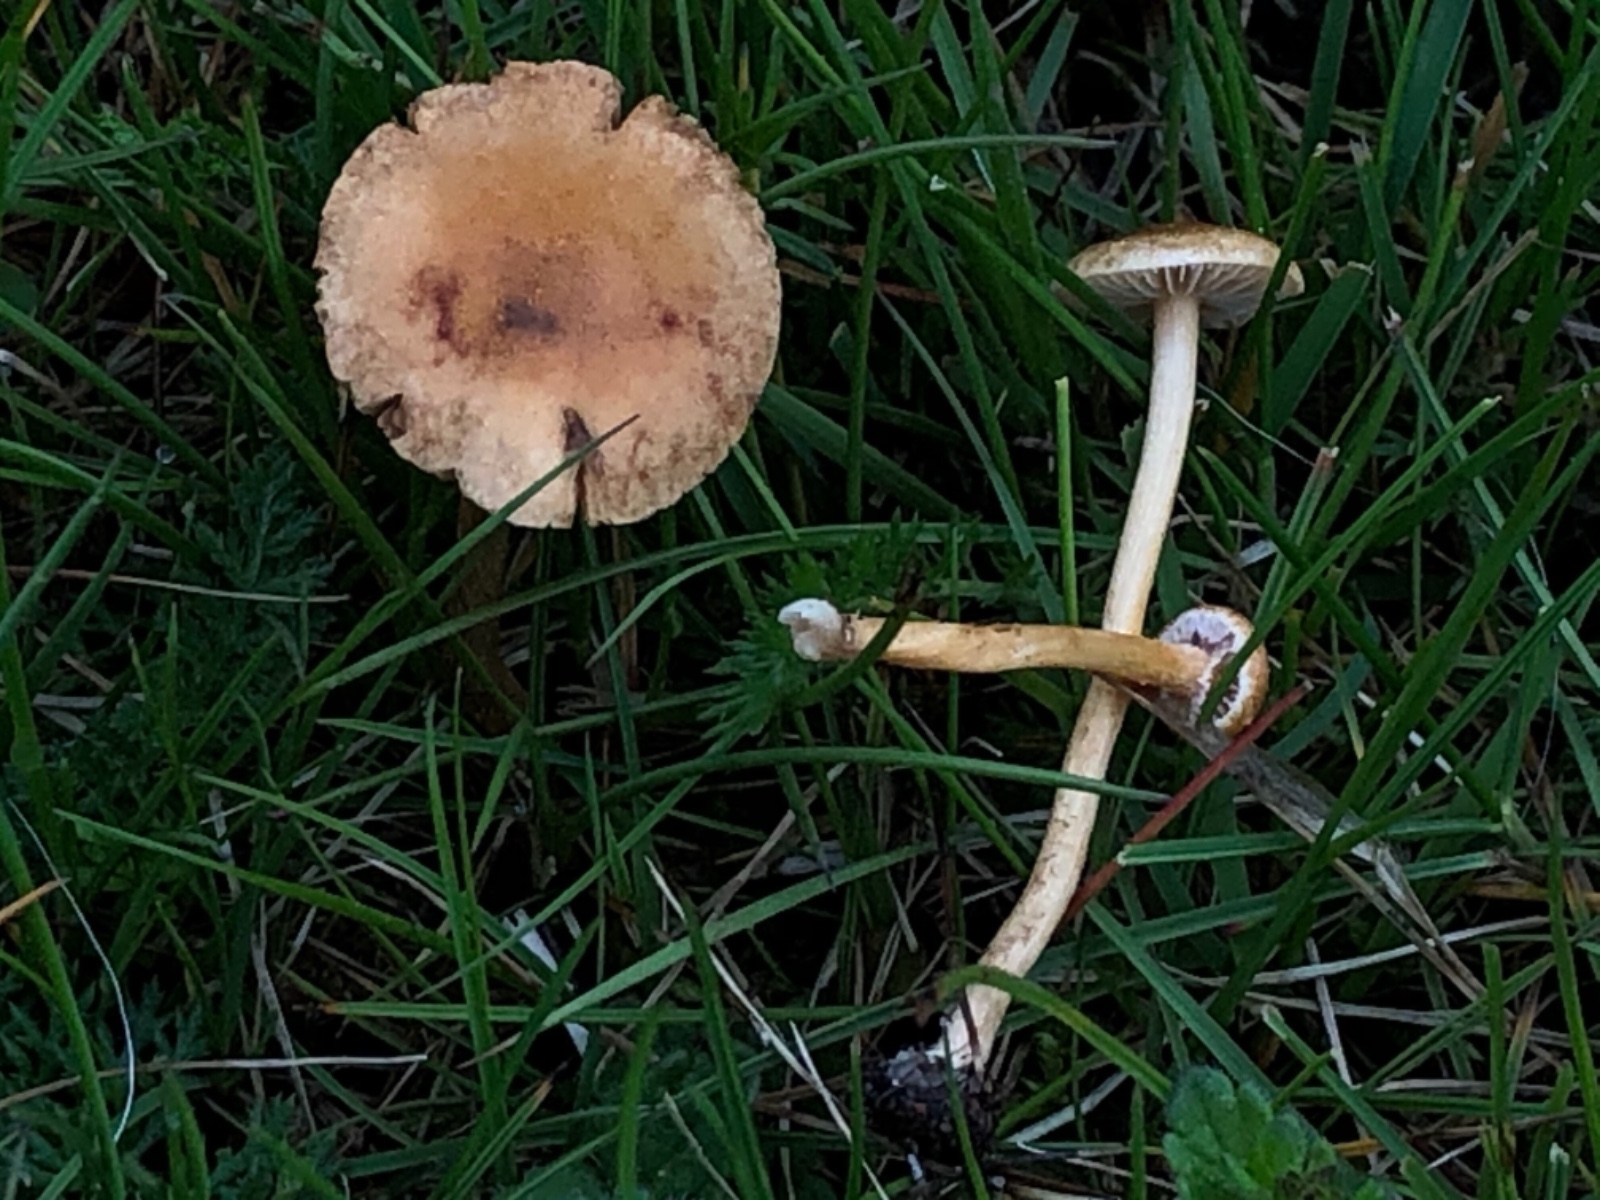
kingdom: Fungi
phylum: Basidiomycota
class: Agaricomycetes
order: Agaricales
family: Strophariaceae
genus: Agrocybe
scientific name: Agrocybe pediades
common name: almindelig agerhat
